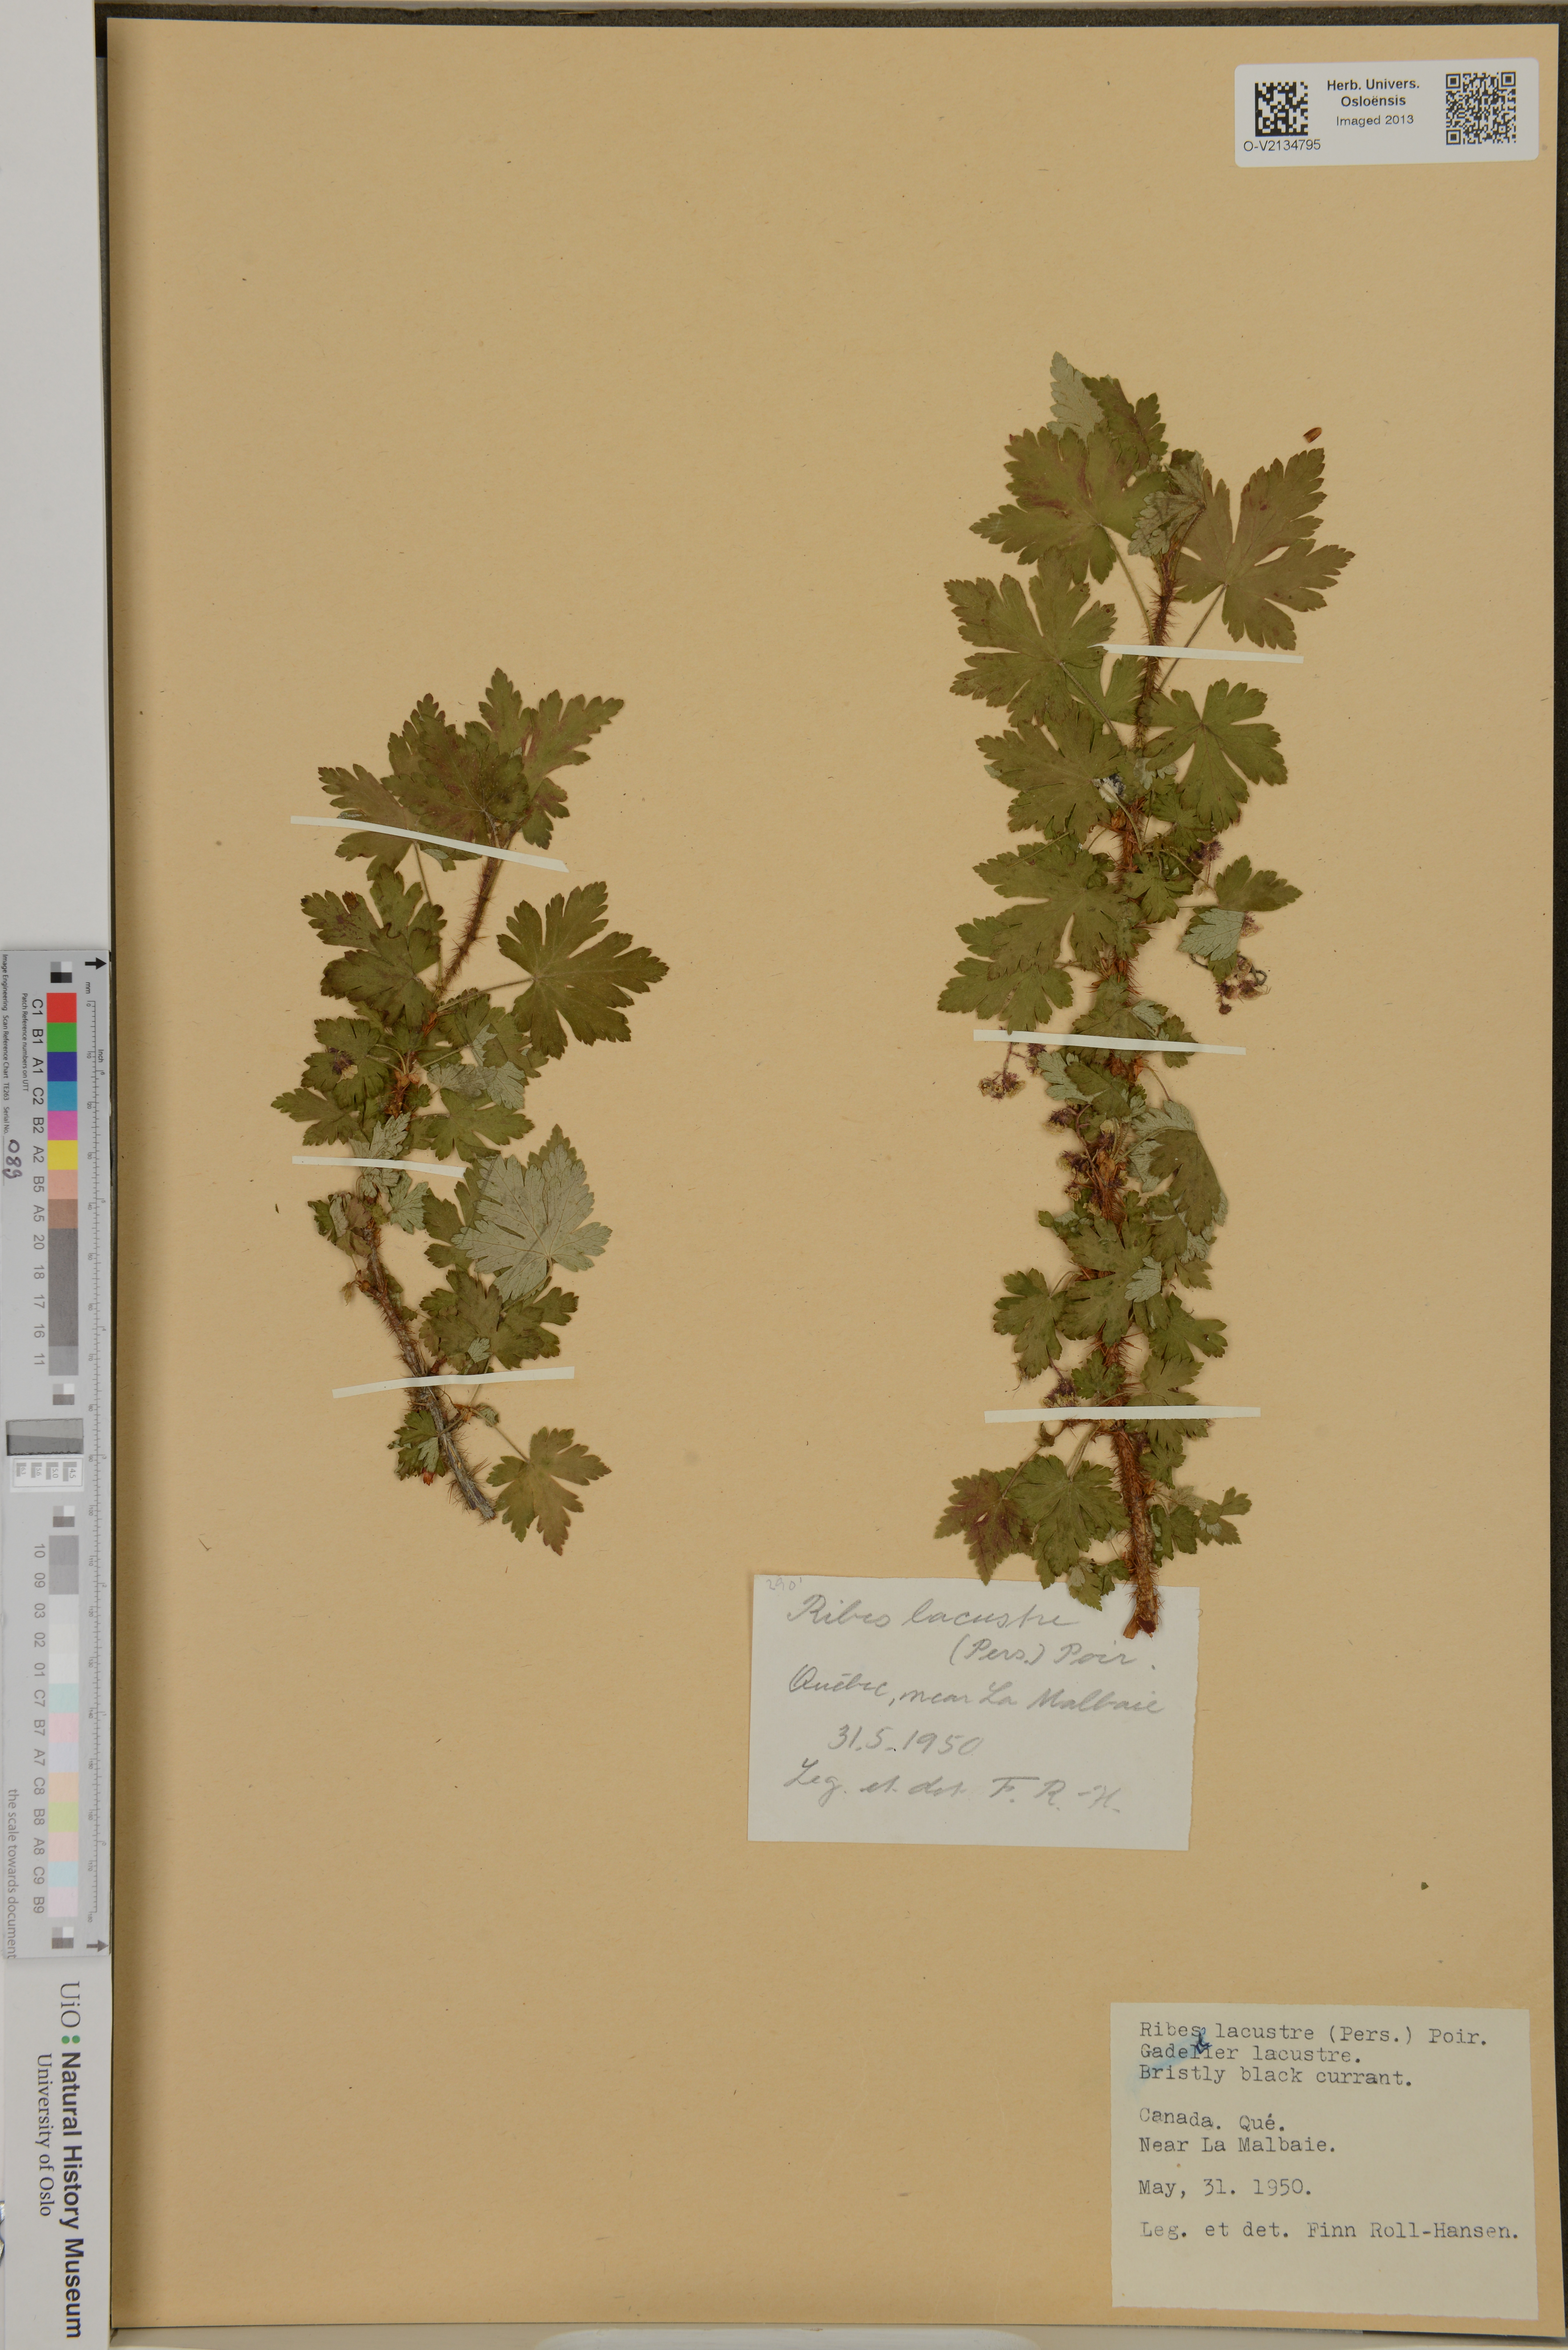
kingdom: Plantae
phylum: Tracheophyta
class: Magnoliopsida
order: Saxifragales
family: Grossulariaceae
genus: Ribes
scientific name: Ribes lacustre
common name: Black gooseberry
